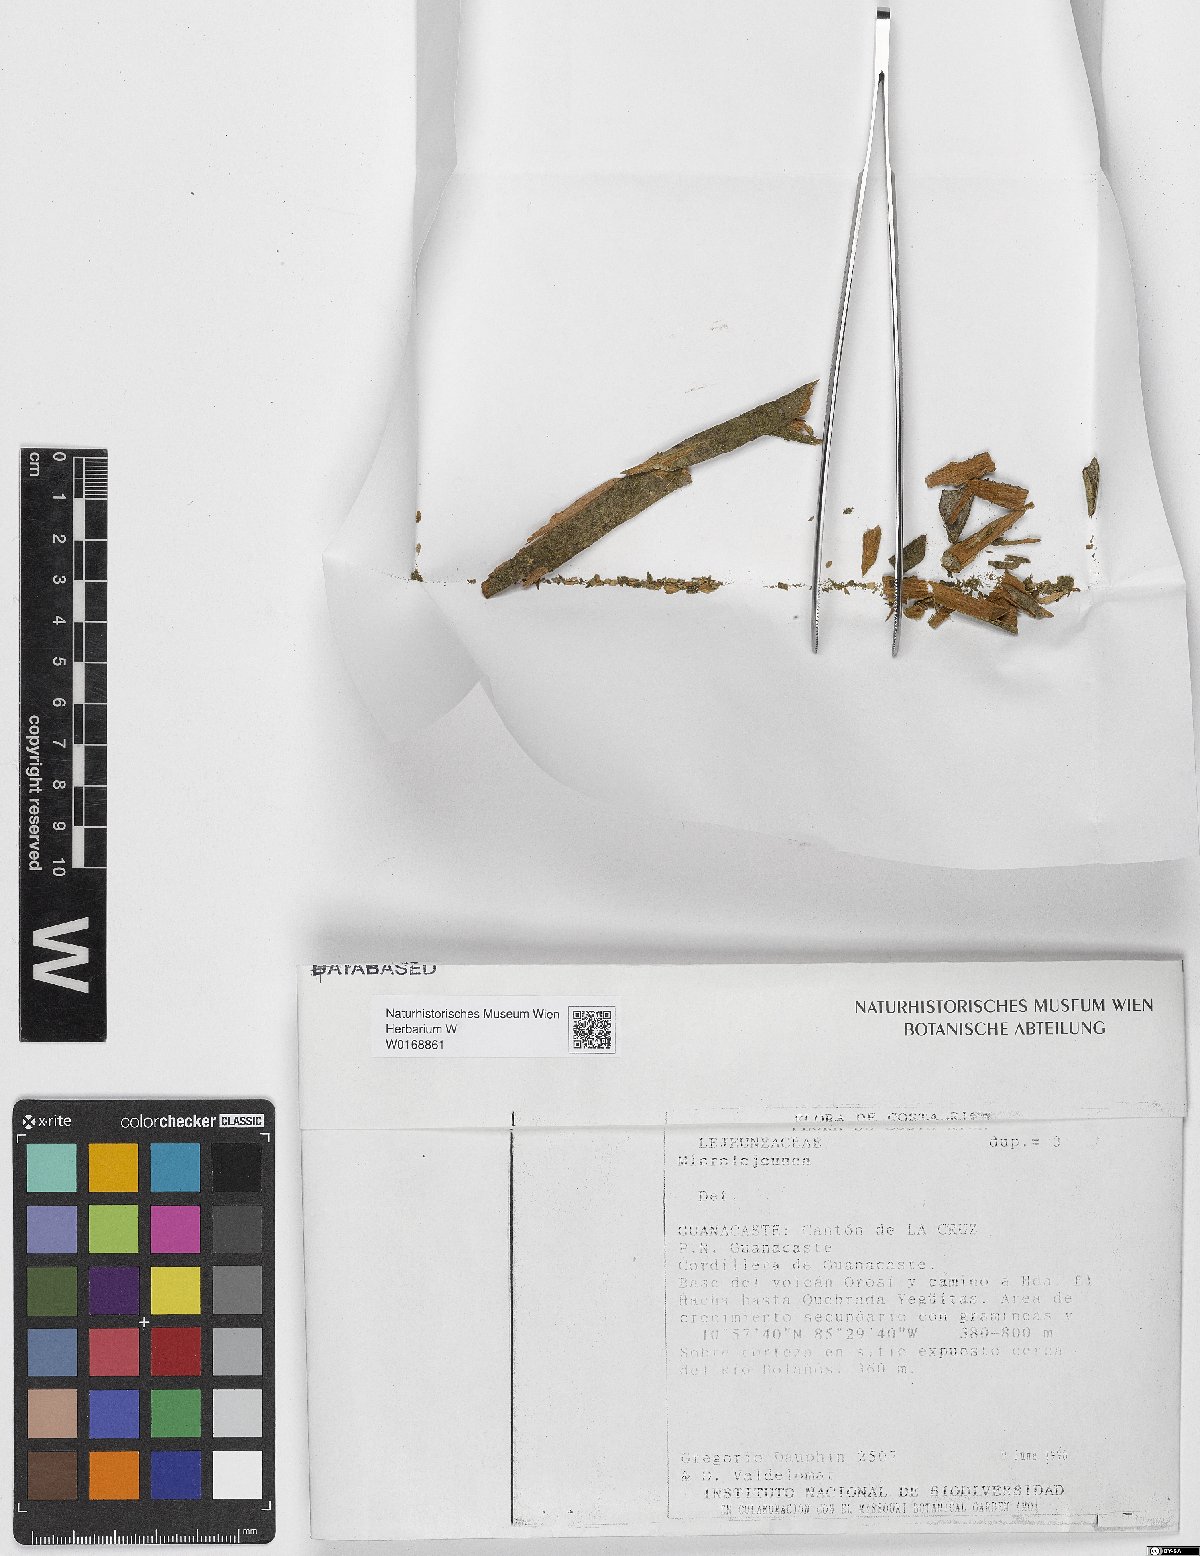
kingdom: Plantae
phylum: Marchantiophyta
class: Jungermanniopsida
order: Porellales
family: Lejeuneaceae
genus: Microlejeunea
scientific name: Microlejeunea
